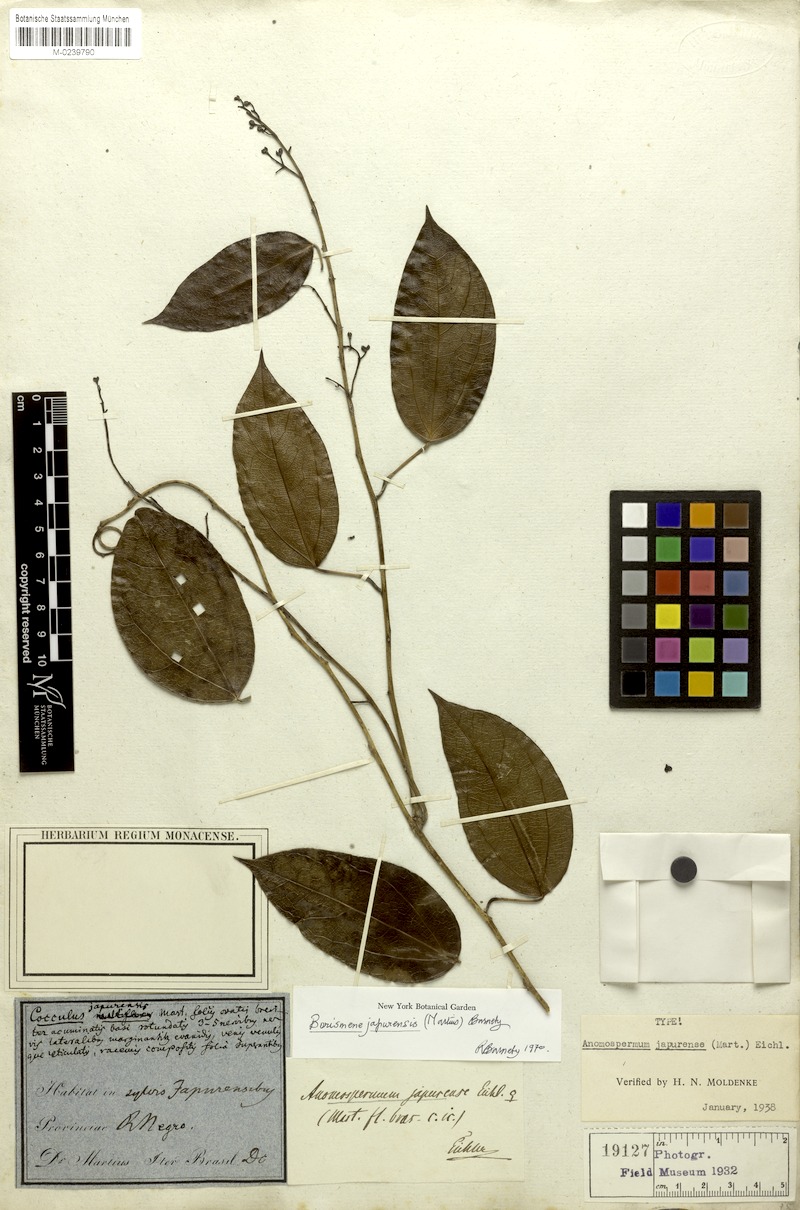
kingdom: Plantae
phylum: Tracheophyta
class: Magnoliopsida
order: Ranunculales
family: Menispermaceae
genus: Borismene
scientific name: Borismene japurensis
